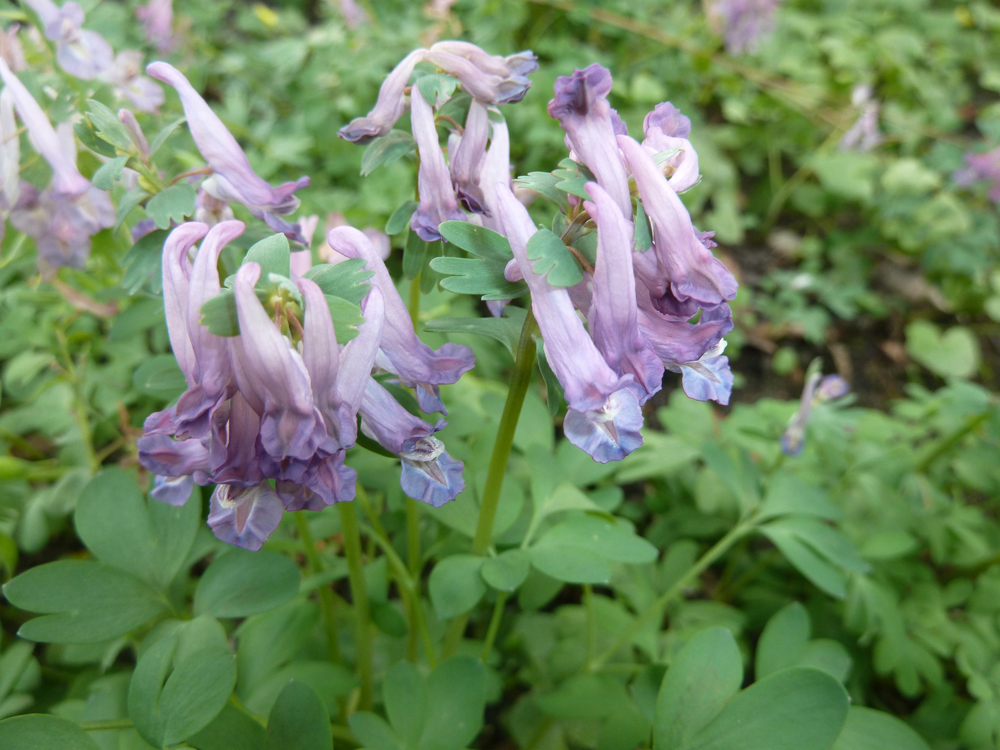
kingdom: Plantae
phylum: Tracheophyta
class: Magnoliopsida
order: Ranunculales
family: Papaveraceae
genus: Corydalis
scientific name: Corydalis solida
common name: Bird-in-a-bush
